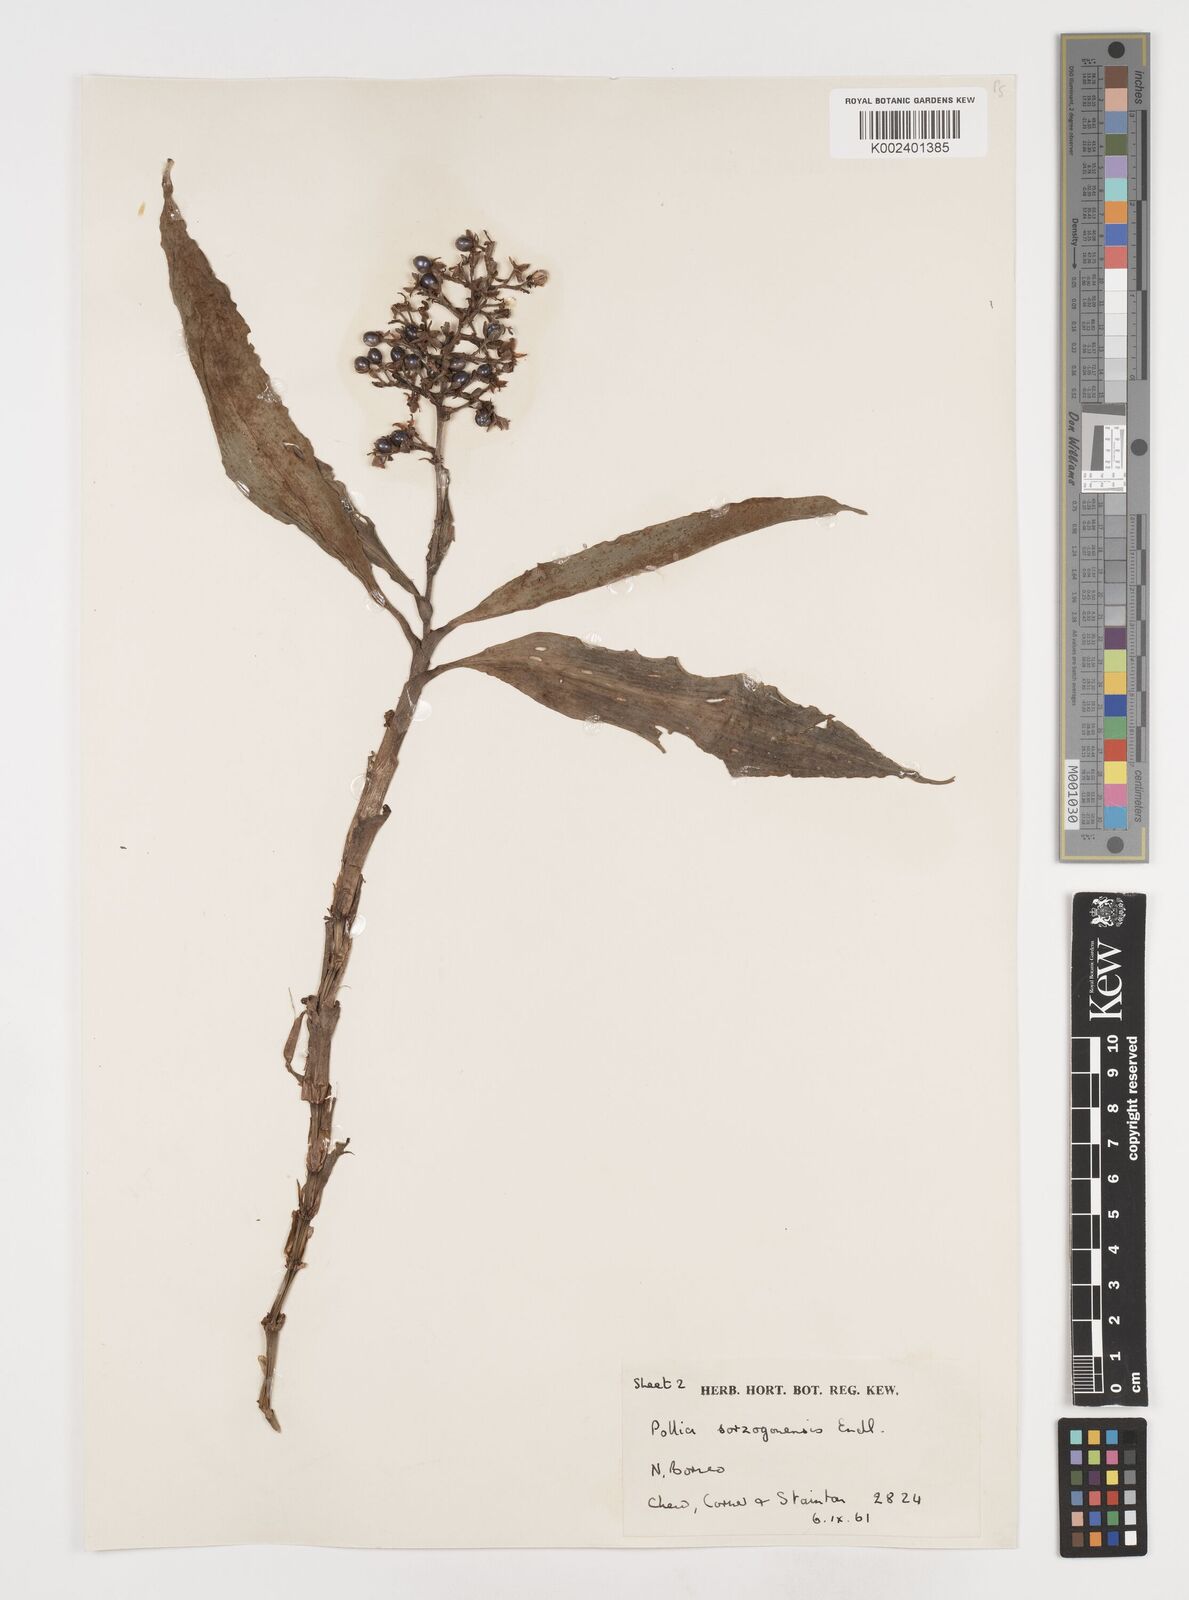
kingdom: Plantae
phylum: Tracheophyta
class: Liliopsida
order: Commelinales
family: Commelinaceae
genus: Pollia
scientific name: Pollia
